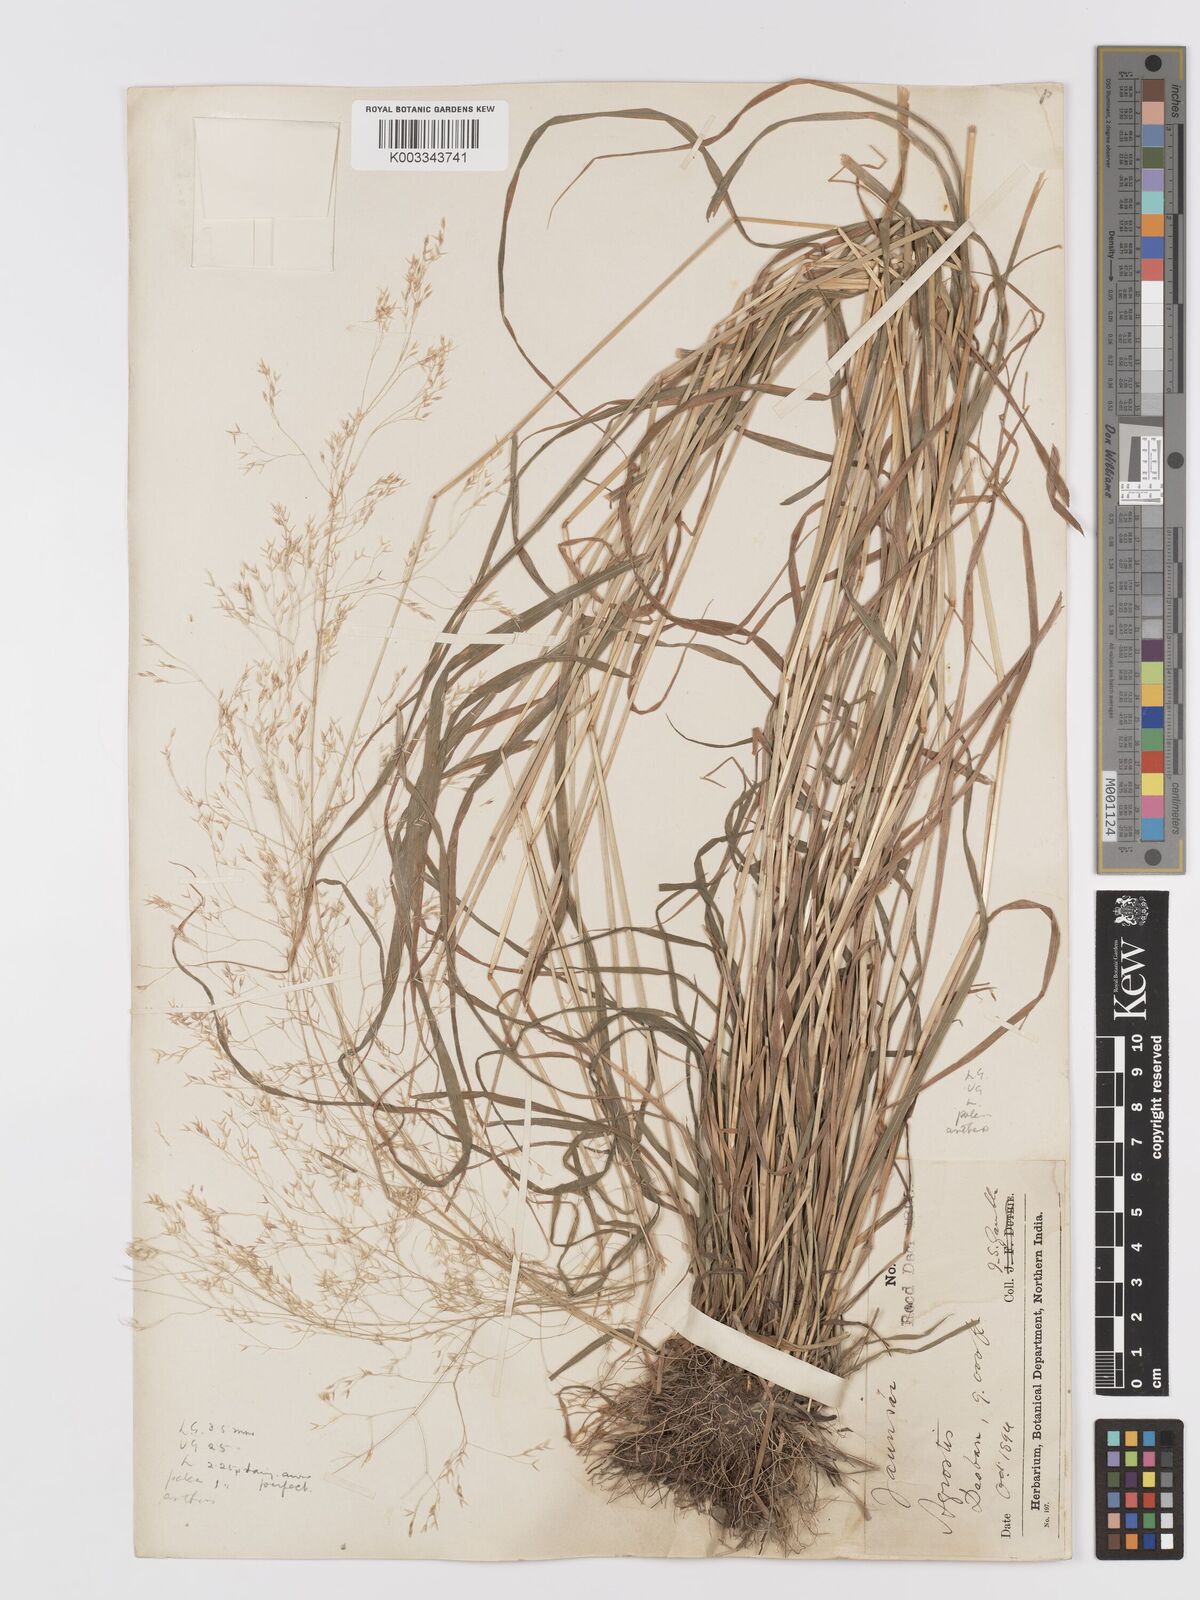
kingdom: Plantae
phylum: Tracheophyta
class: Liliopsida
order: Poales
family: Poaceae
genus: Agrostis
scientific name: Agrostis pilosula
